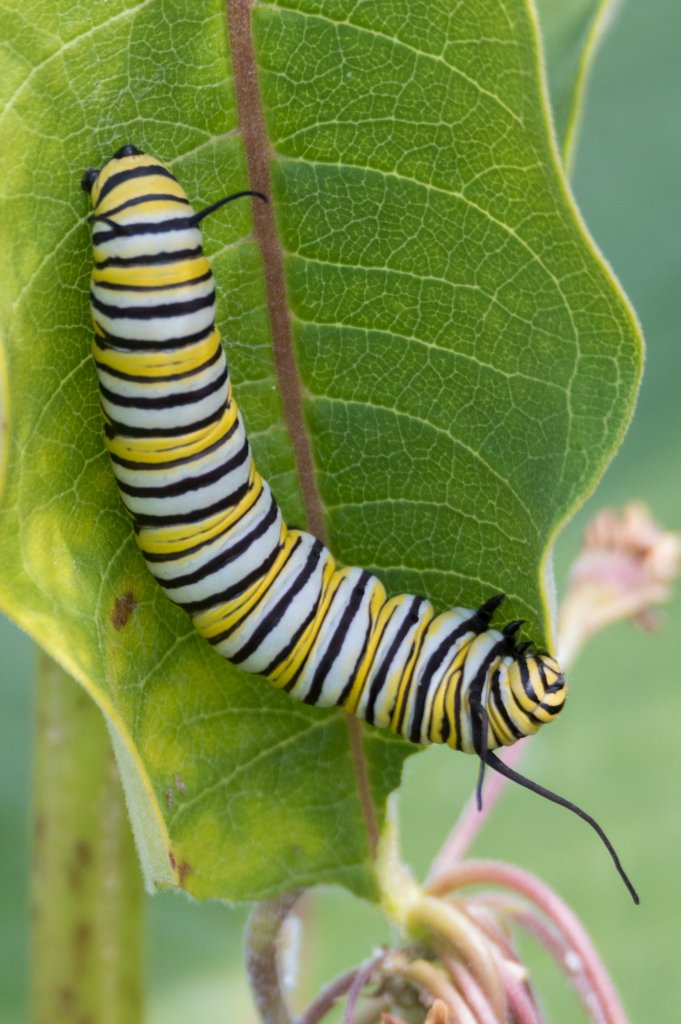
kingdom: Animalia
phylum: Arthropoda
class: Insecta
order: Lepidoptera
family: Nymphalidae
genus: Danaus
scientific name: Danaus plexippus
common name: Monarch
